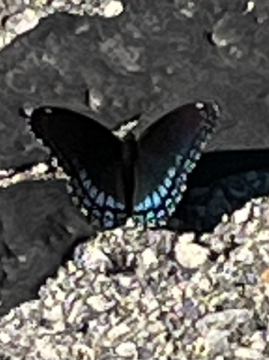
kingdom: Animalia
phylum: Arthropoda
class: Insecta
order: Lepidoptera
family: Nymphalidae
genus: Limenitis
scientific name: Limenitis arthemis
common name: Red-spotted Admiral
